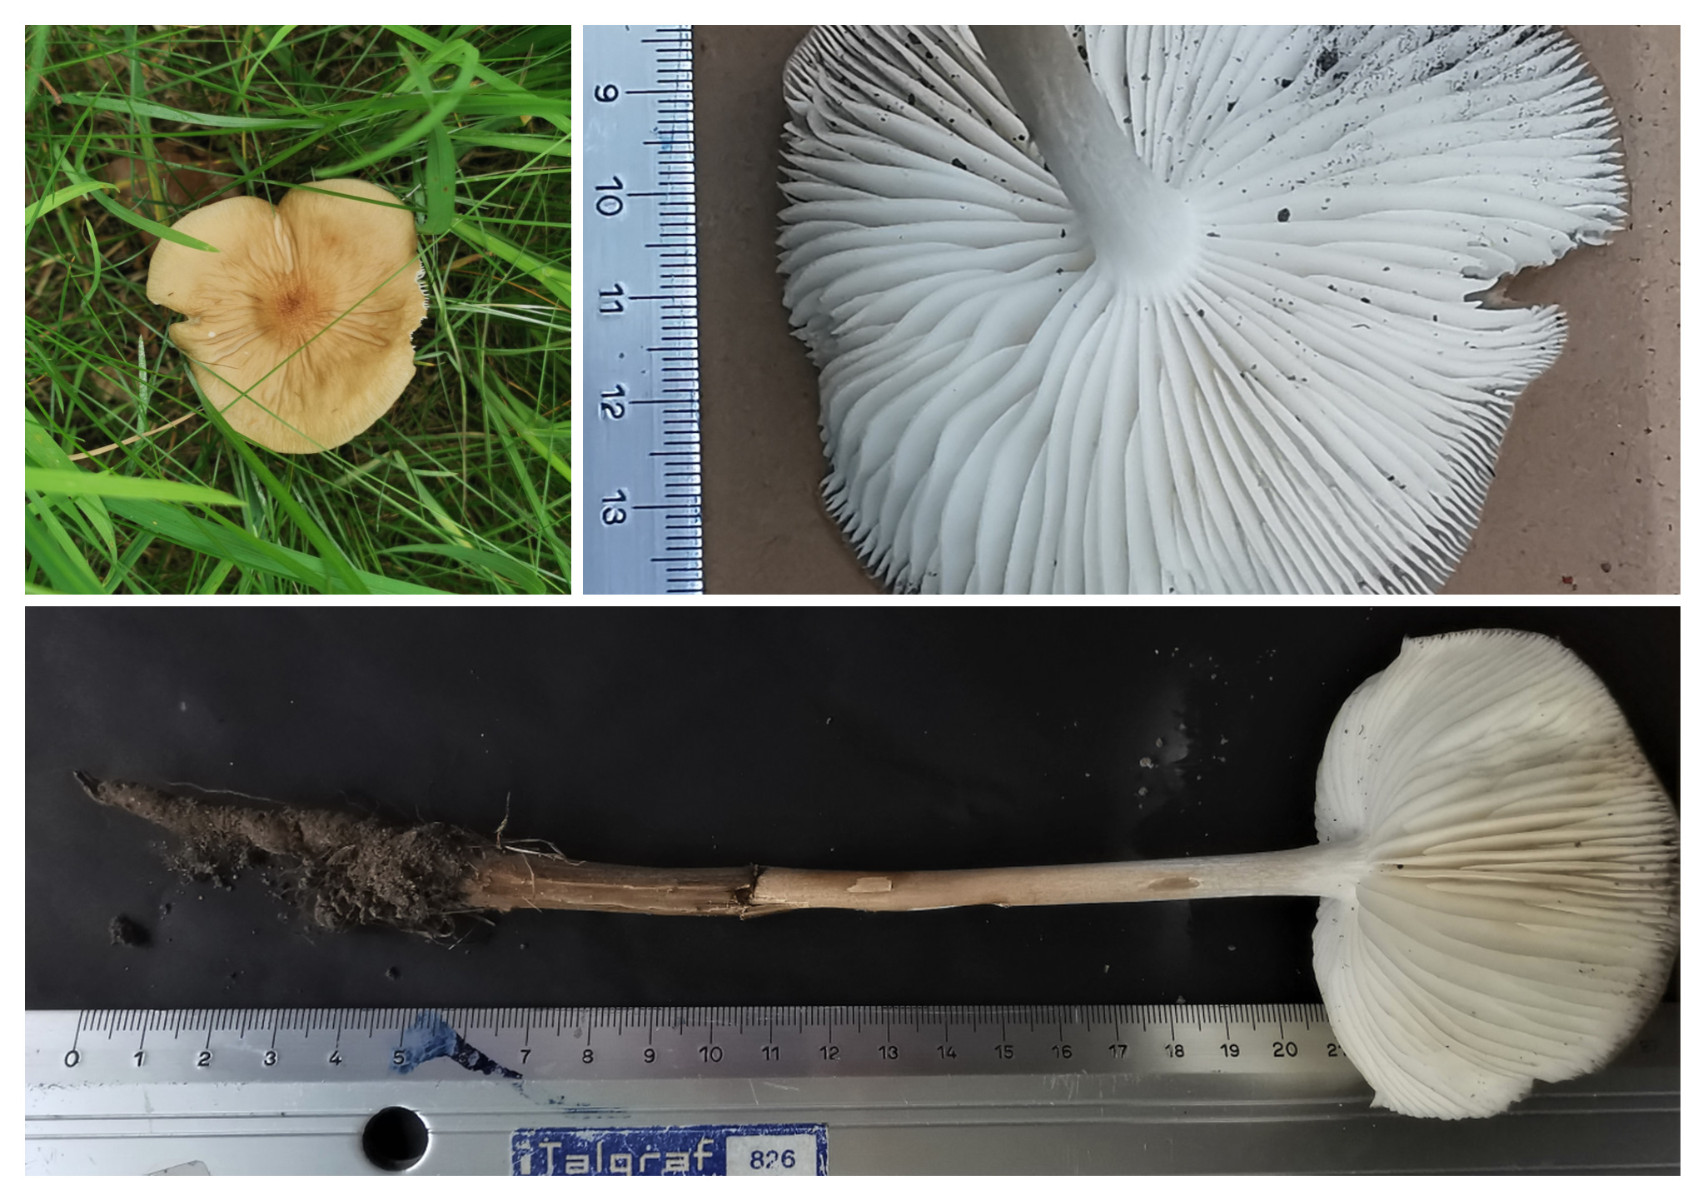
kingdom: Fungi
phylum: Basidiomycota
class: Agaricomycetes
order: Agaricales
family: Physalacriaceae
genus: Hymenopellis
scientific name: Hymenopellis radicata
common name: almindelig pælerodshat
